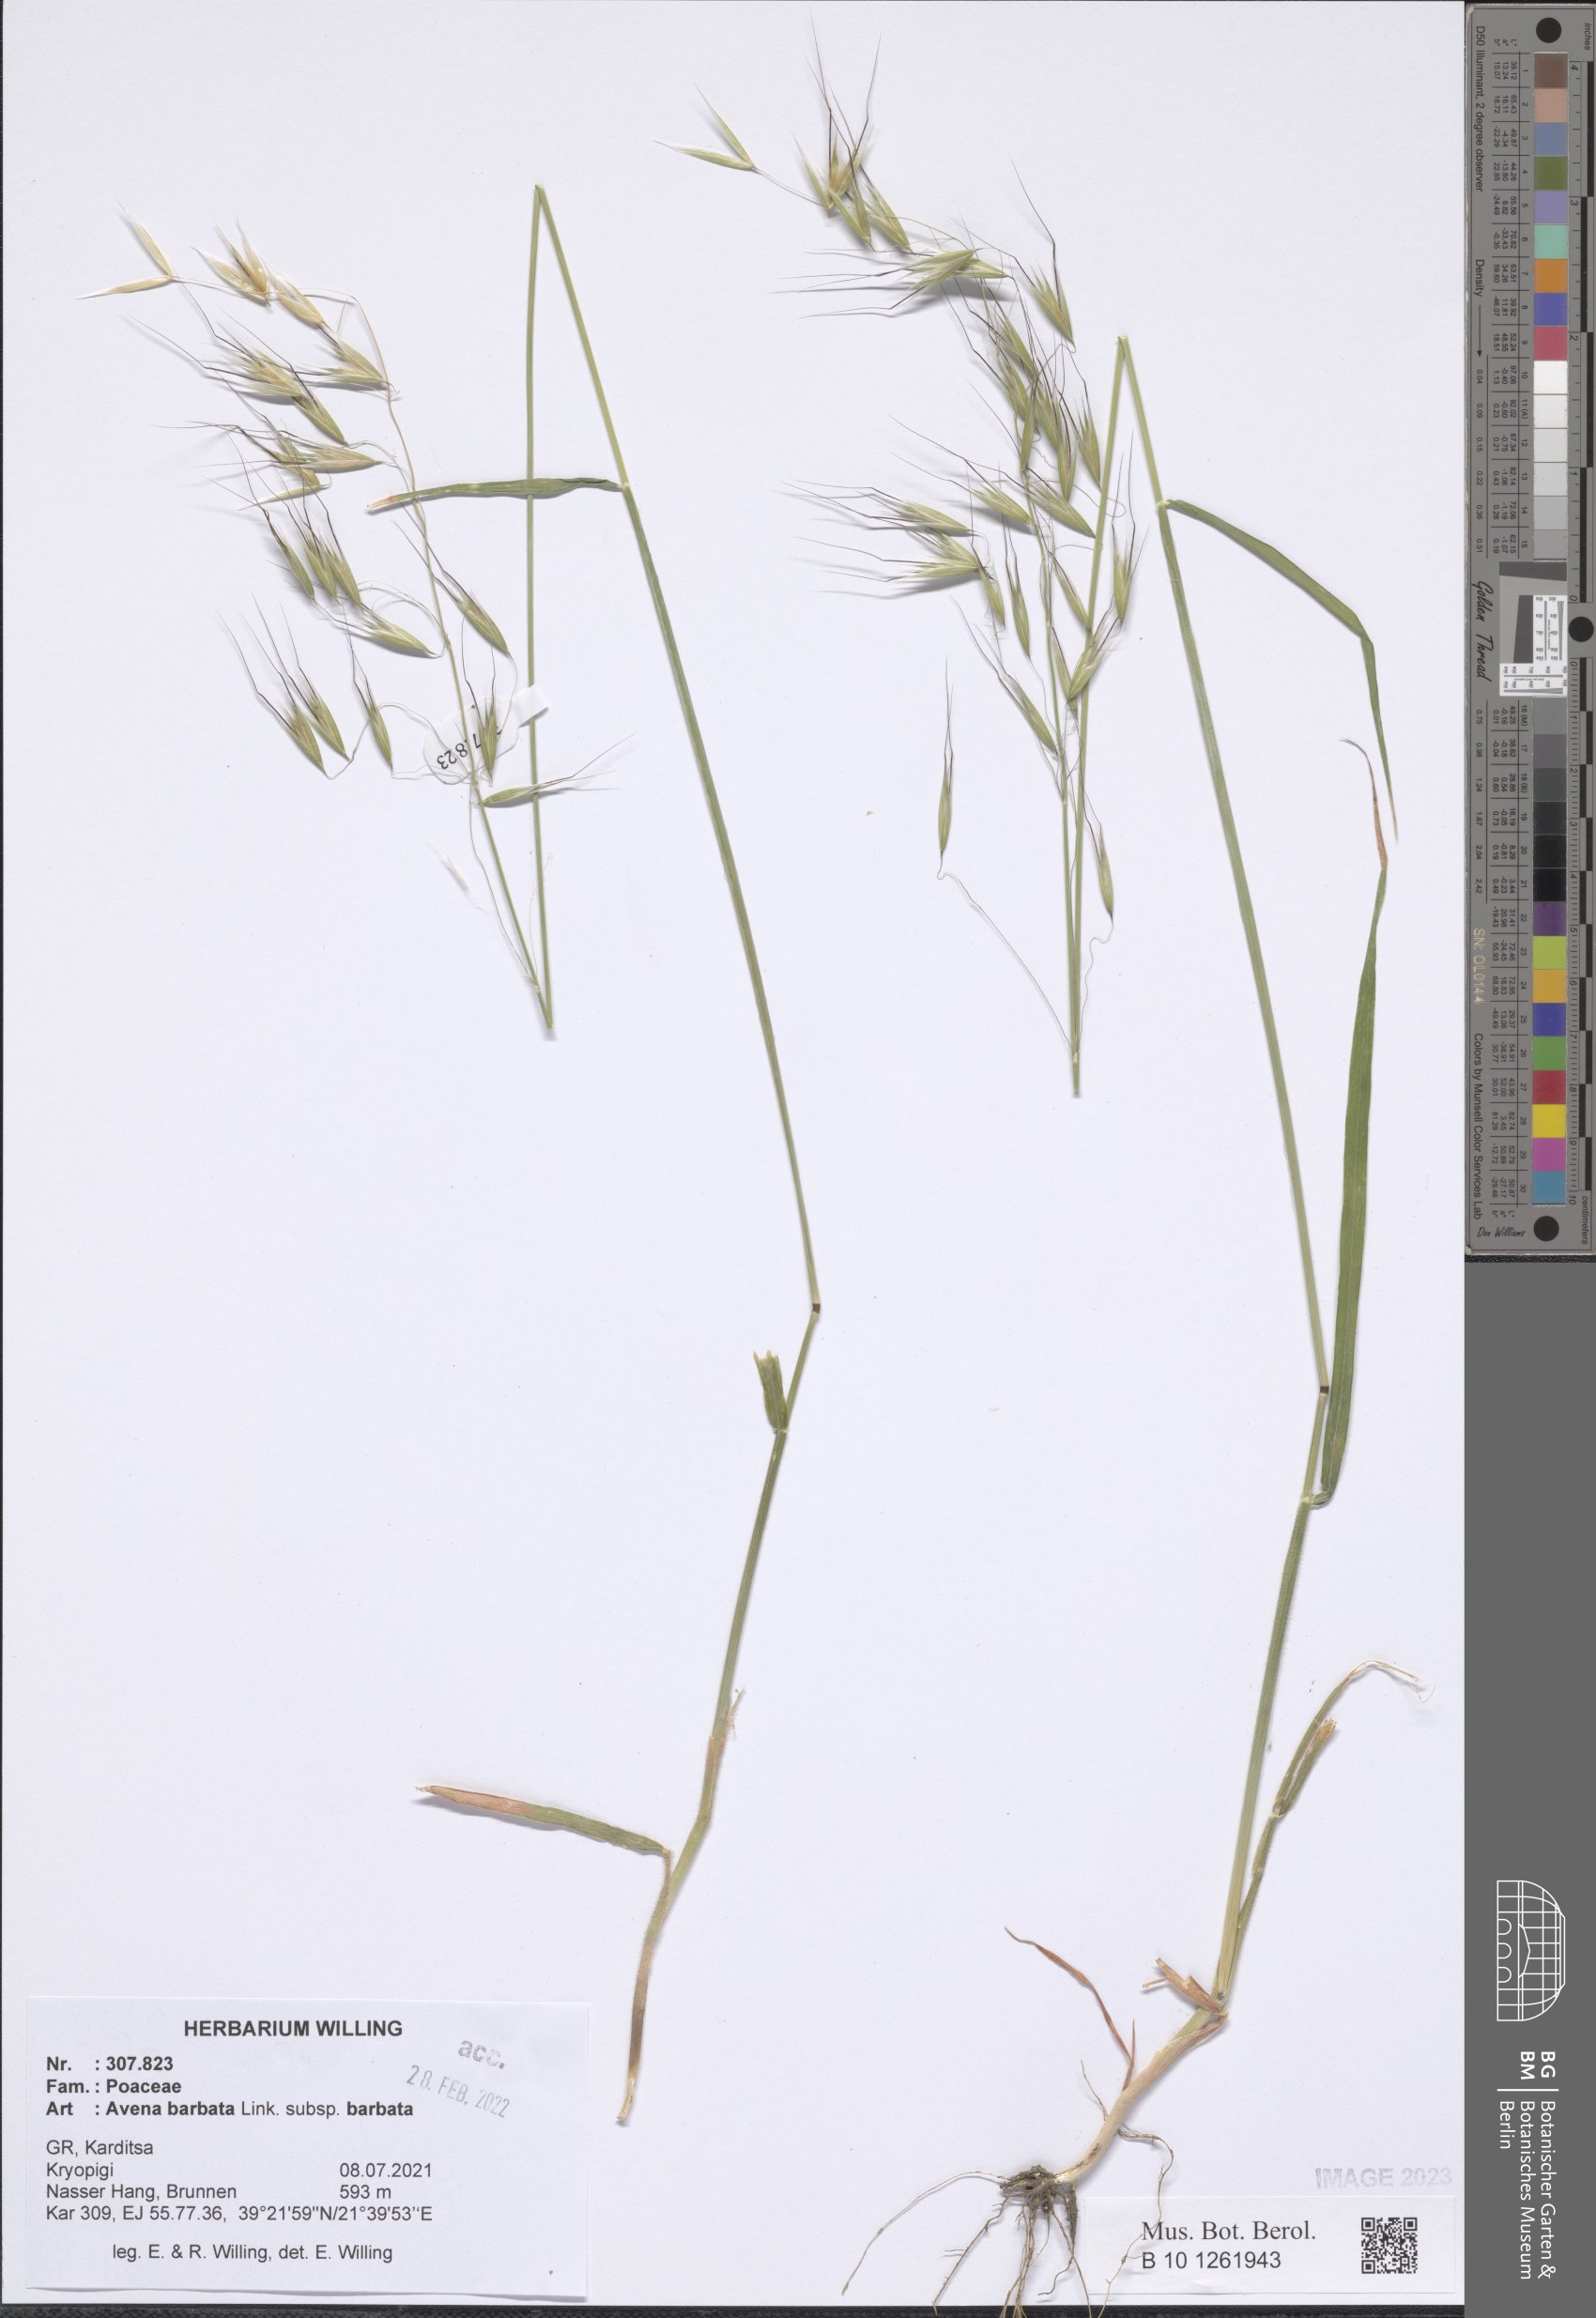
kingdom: Plantae
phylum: Tracheophyta
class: Liliopsida
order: Poales
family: Poaceae
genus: Avena
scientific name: Avena barbata
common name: Slender oat
